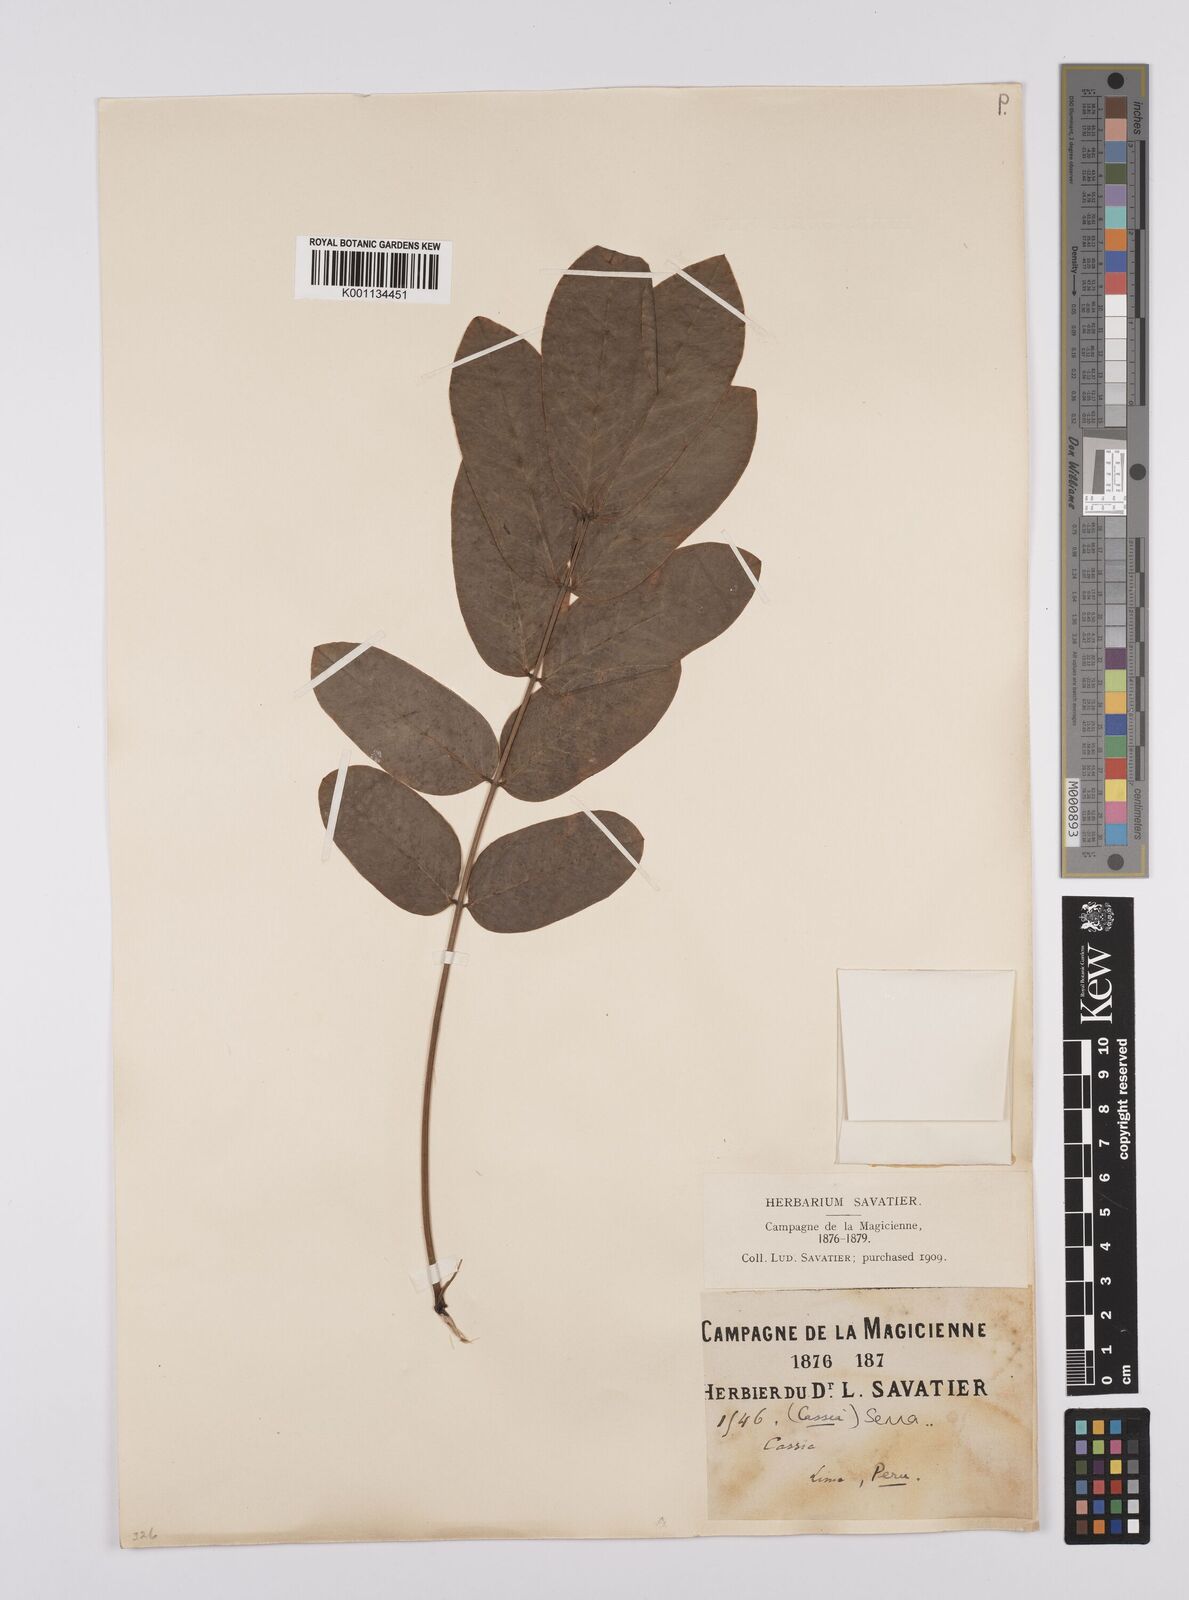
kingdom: Plantae
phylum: Tracheophyta
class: Magnoliopsida
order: Fabales
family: Fabaceae
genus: Senna
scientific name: Senna
